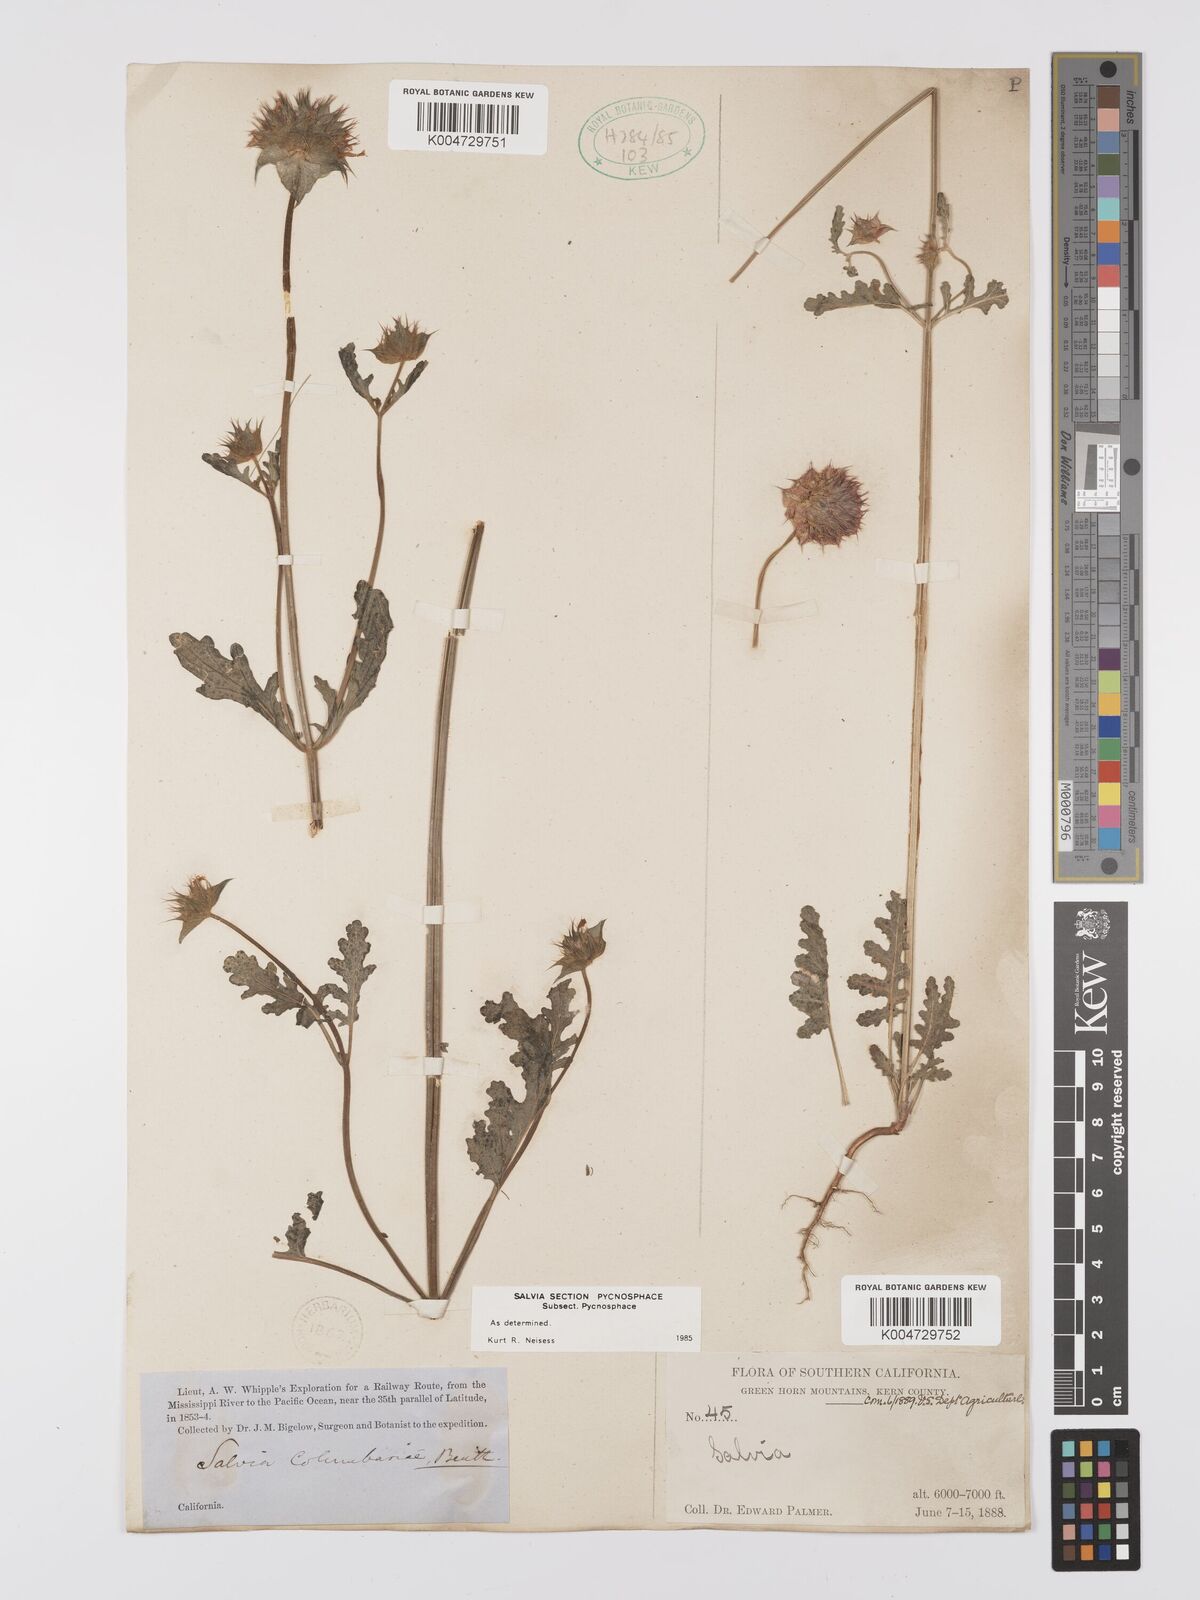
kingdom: Plantae
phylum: Tracheophyta
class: Magnoliopsida
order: Lamiales
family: Lamiaceae
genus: Salvia
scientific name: Salvia columbariae
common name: Chia
